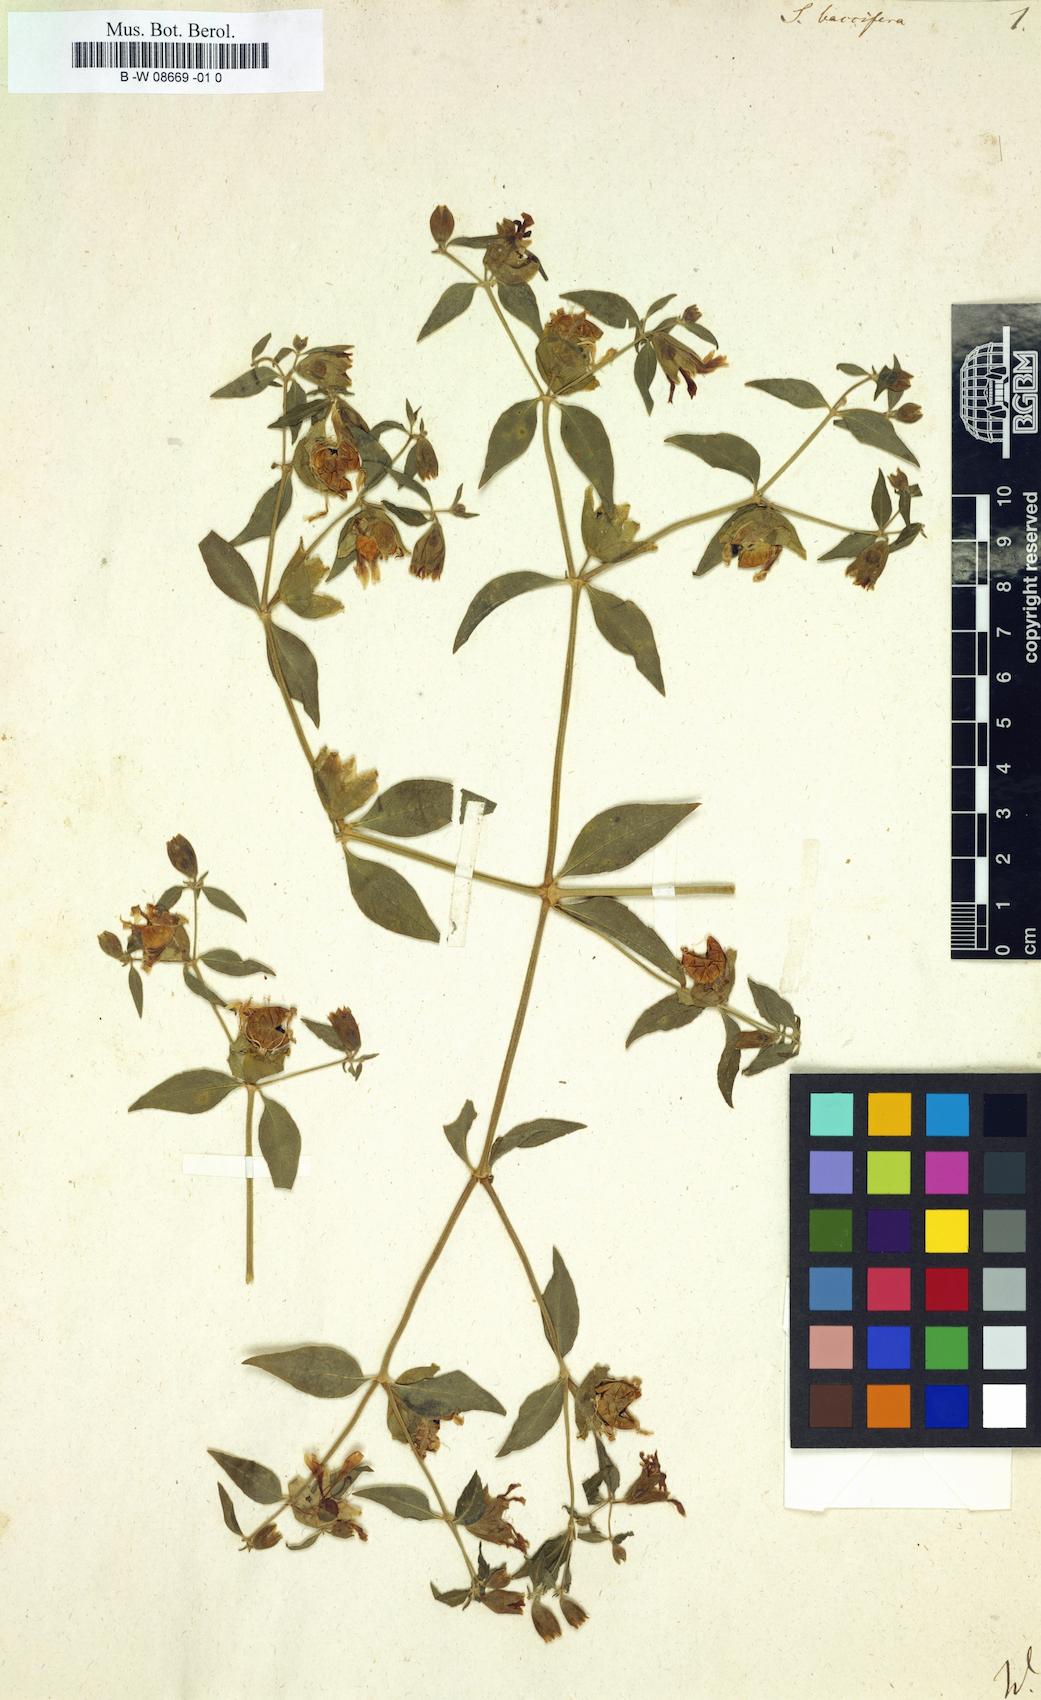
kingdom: Plantae
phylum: Tracheophyta
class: Magnoliopsida
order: Caryophyllales
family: Caryophyllaceae
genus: Silene
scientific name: Silene baccifera
